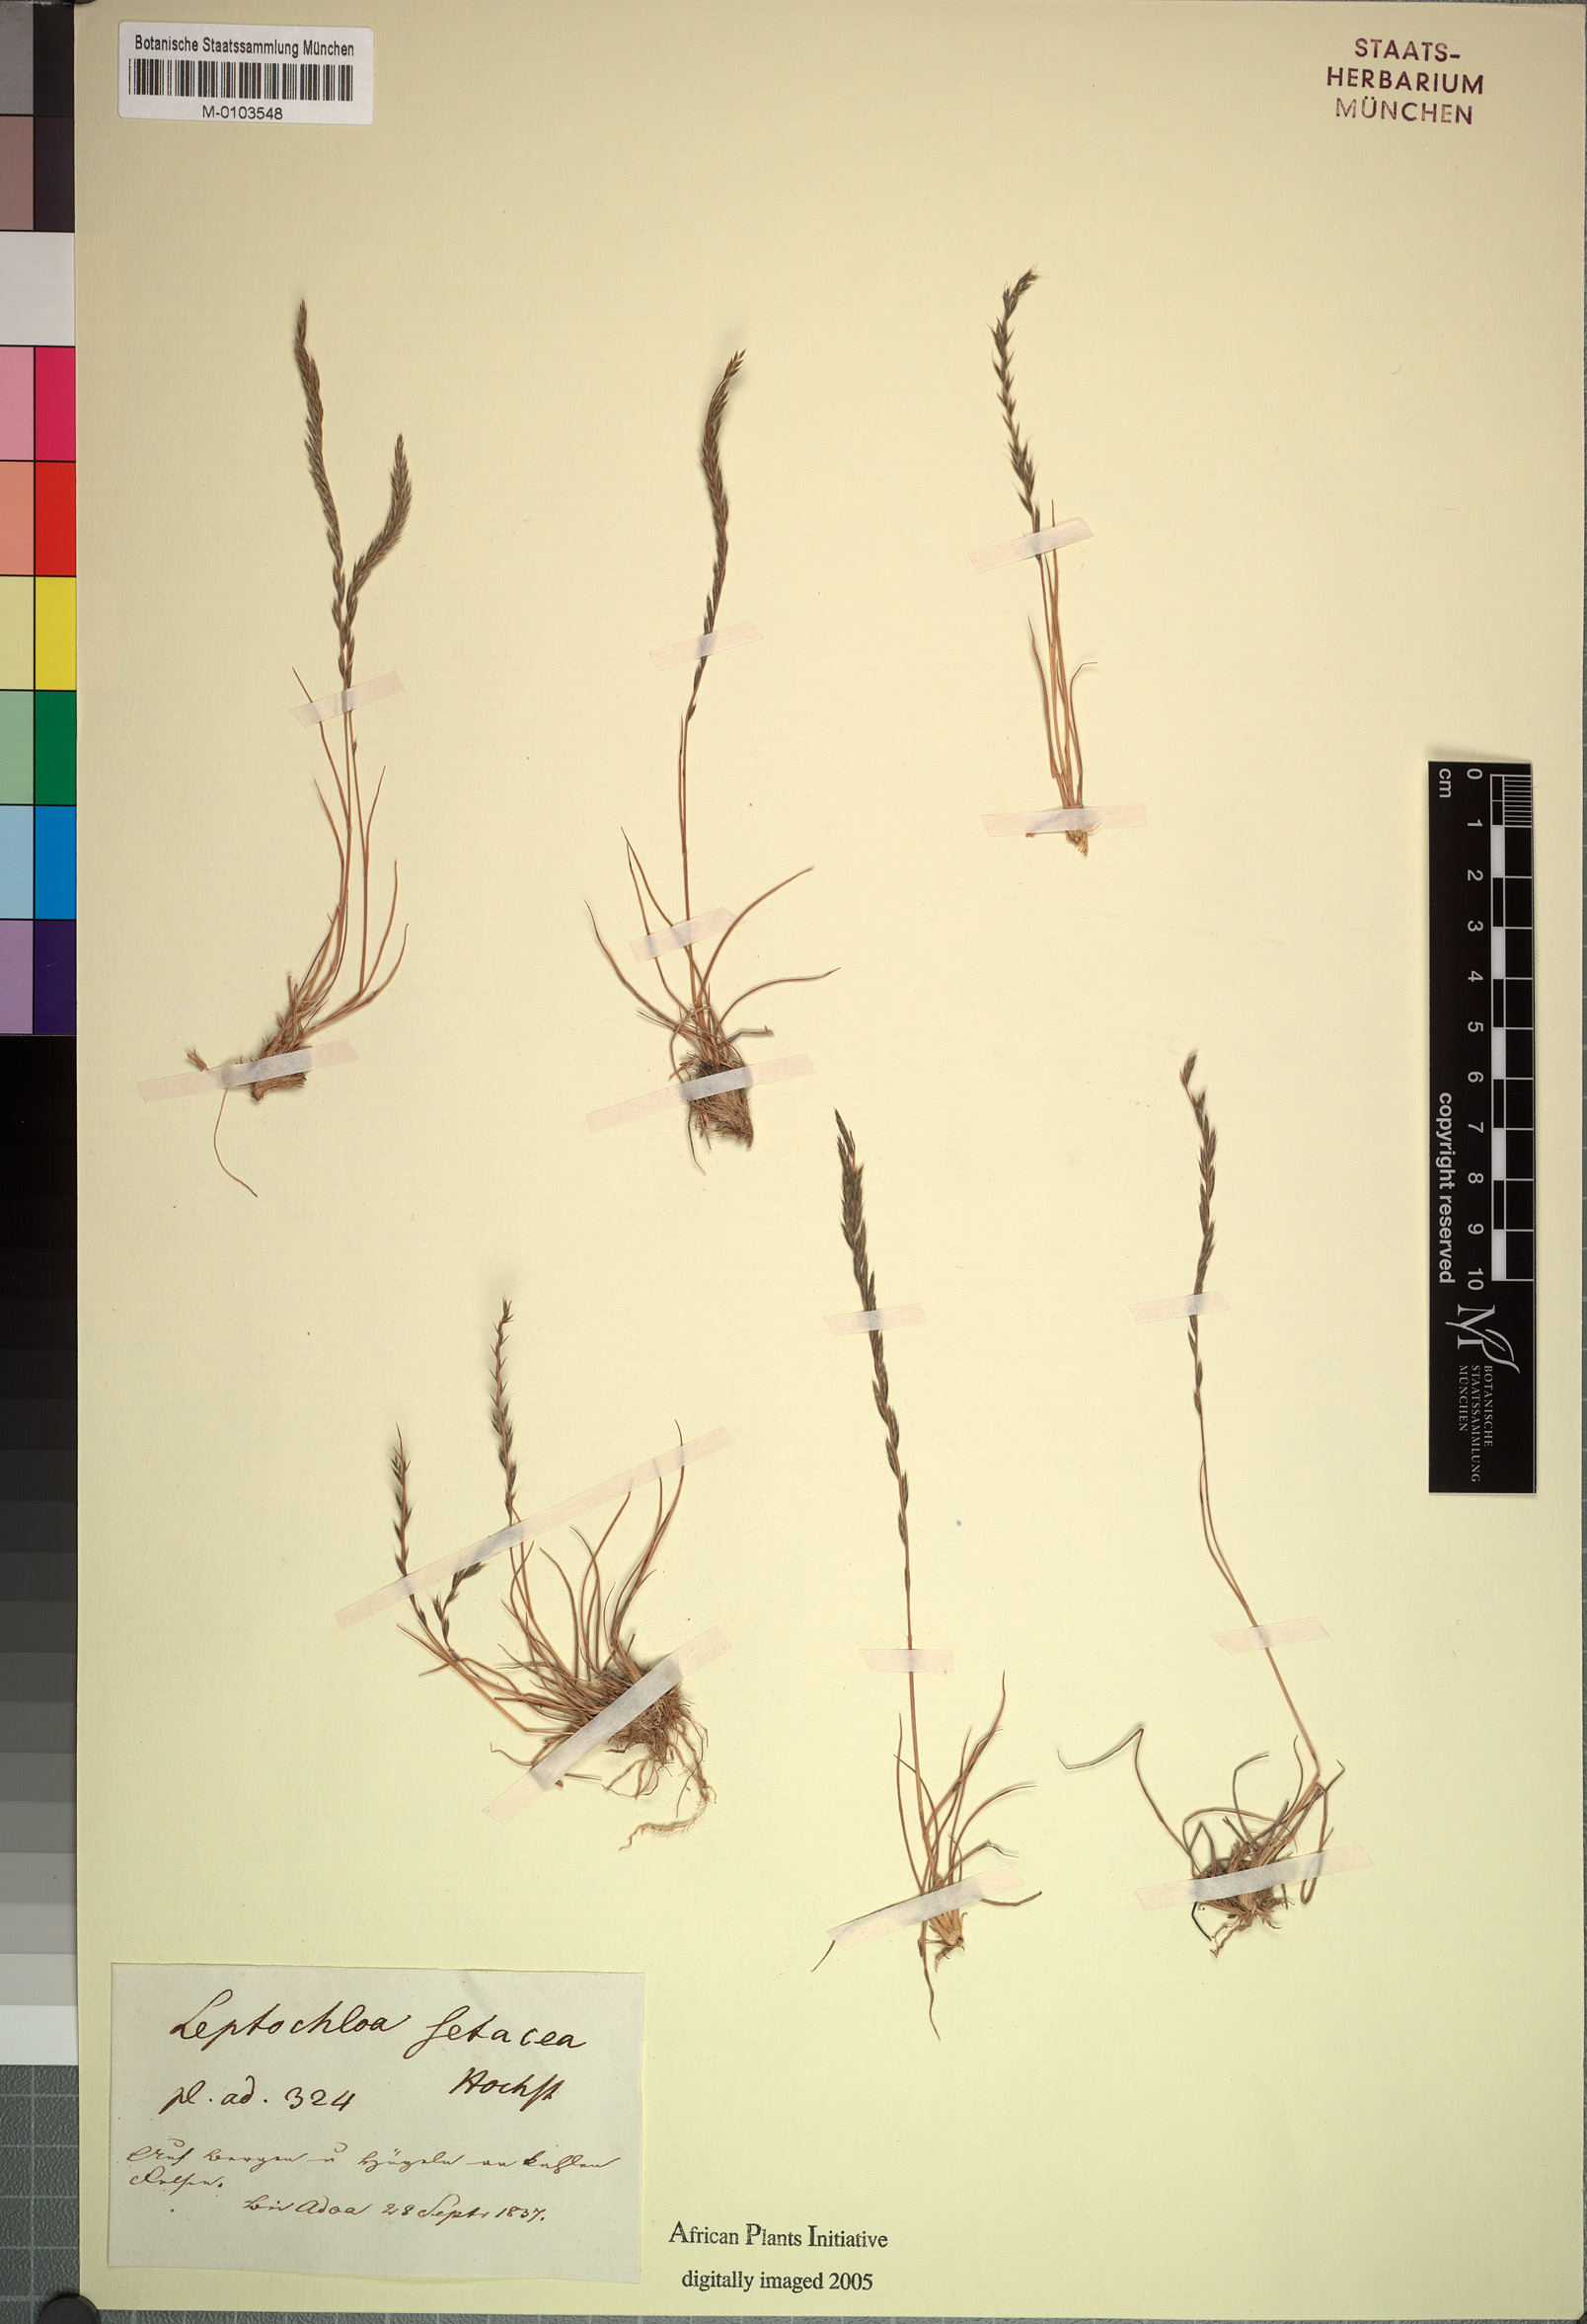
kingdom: Plantae
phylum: Tracheophyta
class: Liliopsida
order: Poales
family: Poaceae
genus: Tripogon
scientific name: Tripogon leptophyllus
